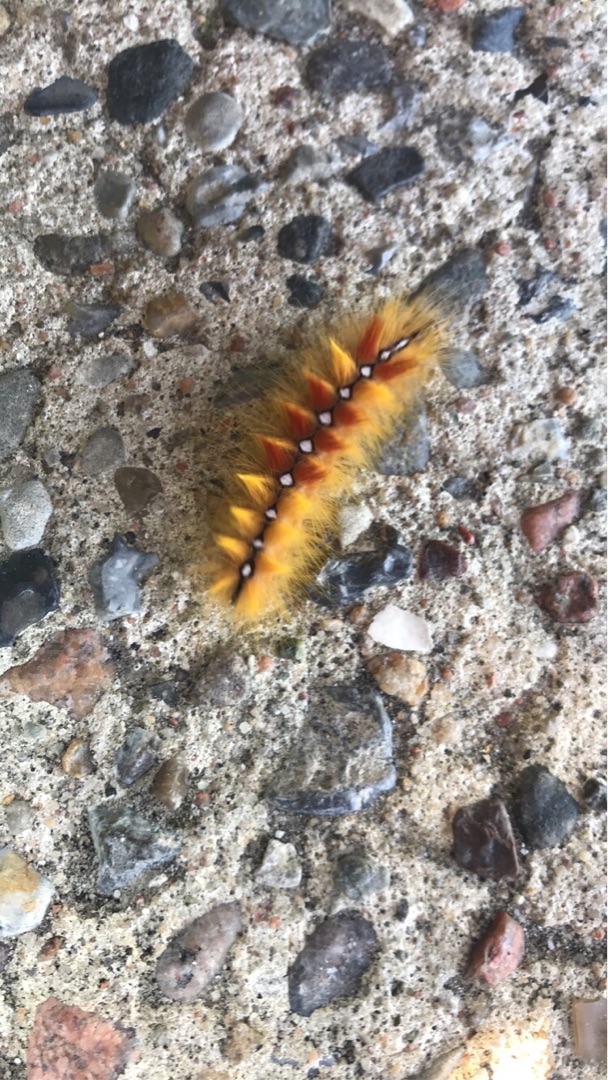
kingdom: Animalia
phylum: Arthropoda
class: Insecta
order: Lepidoptera
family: Noctuidae
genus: Acronicta
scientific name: Acronicta aceris
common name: Ahornugle
